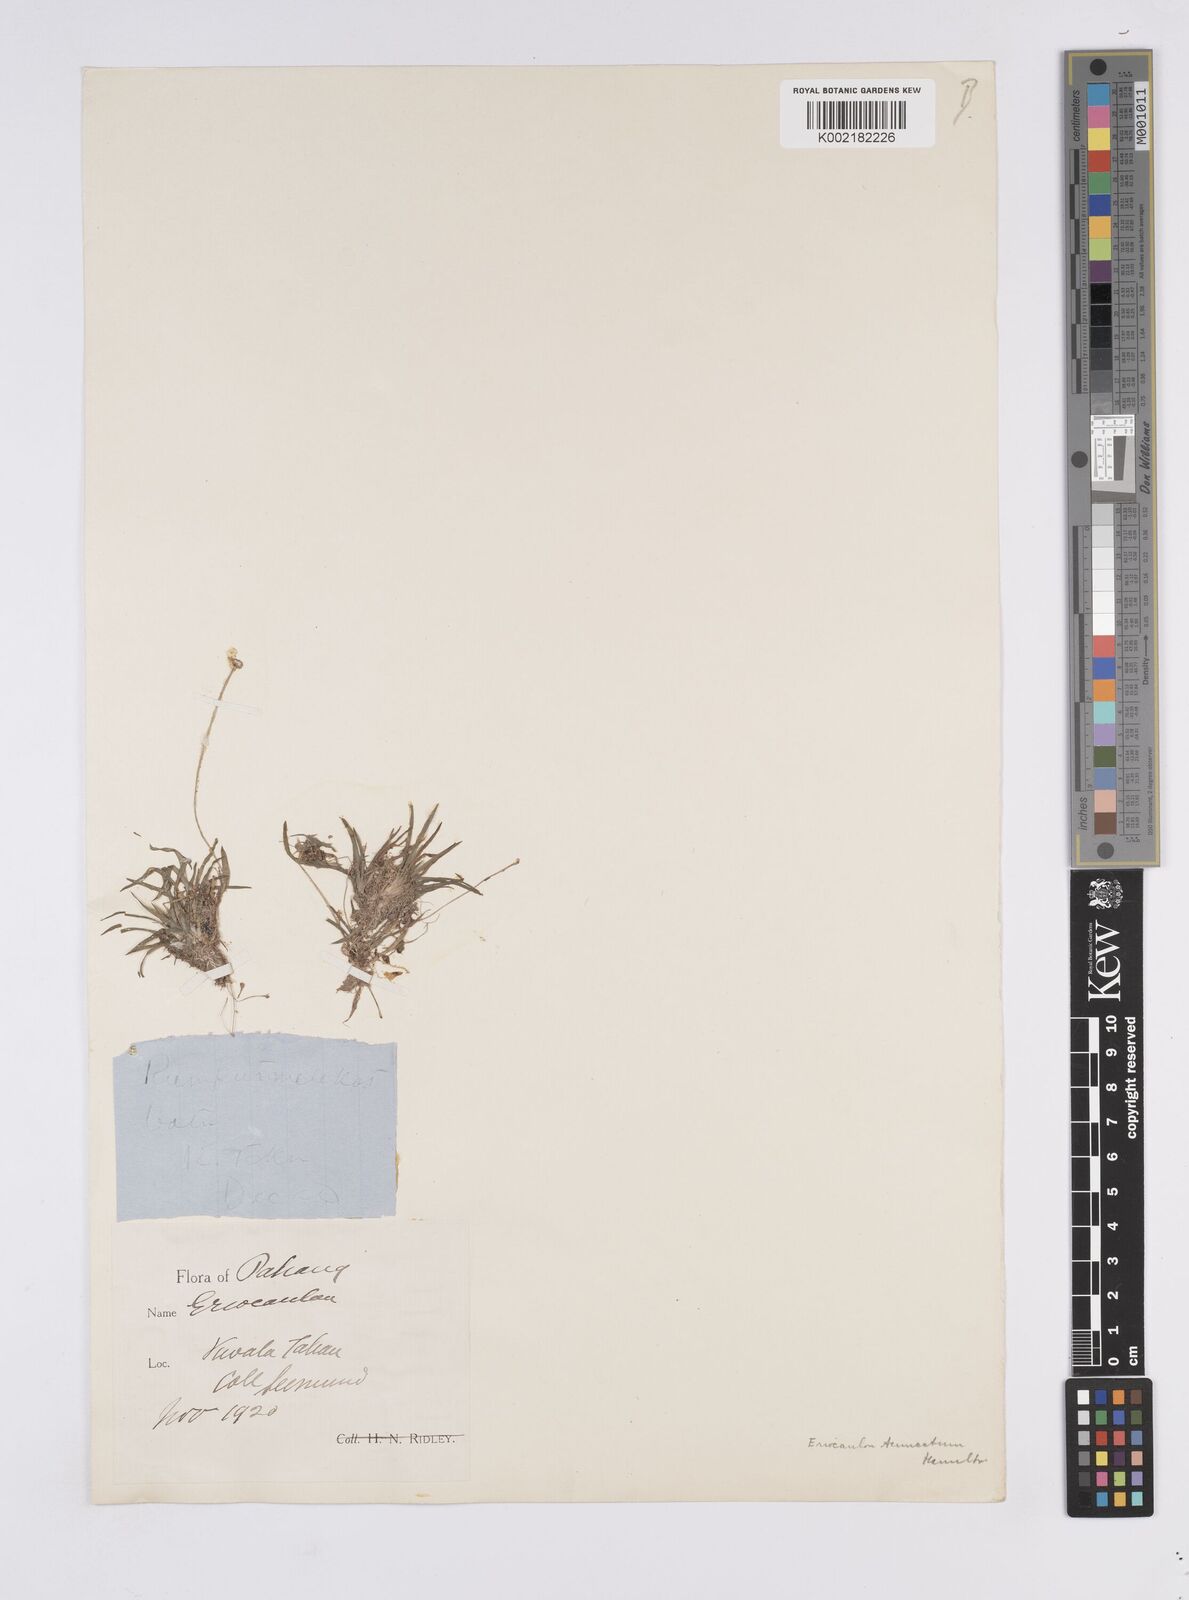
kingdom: Plantae
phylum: Tracheophyta
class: Liliopsida
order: Poales
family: Eriocaulaceae
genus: Eriocaulon
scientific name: Eriocaulon
